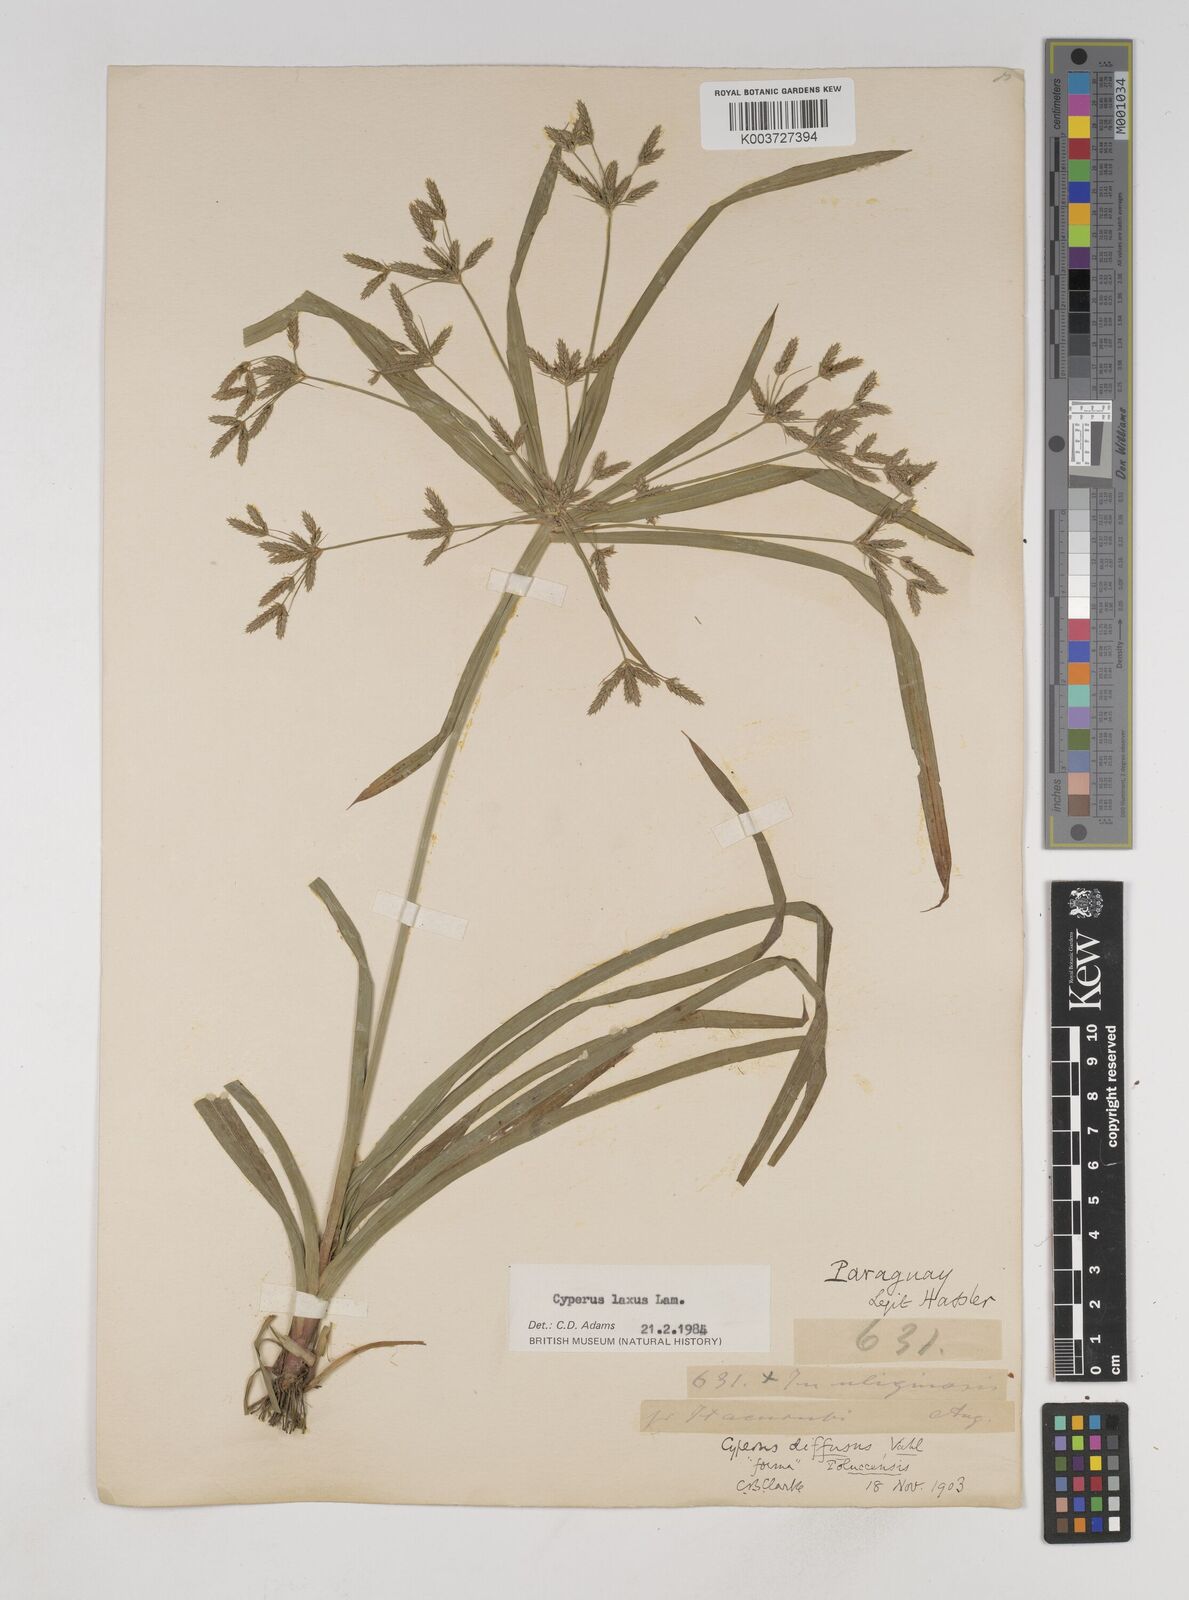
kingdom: Plantae
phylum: Tracheophyta
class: Liliopsida
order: Poales
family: Cyperaceae
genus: Cyperus
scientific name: Cyperus chalaranthus
